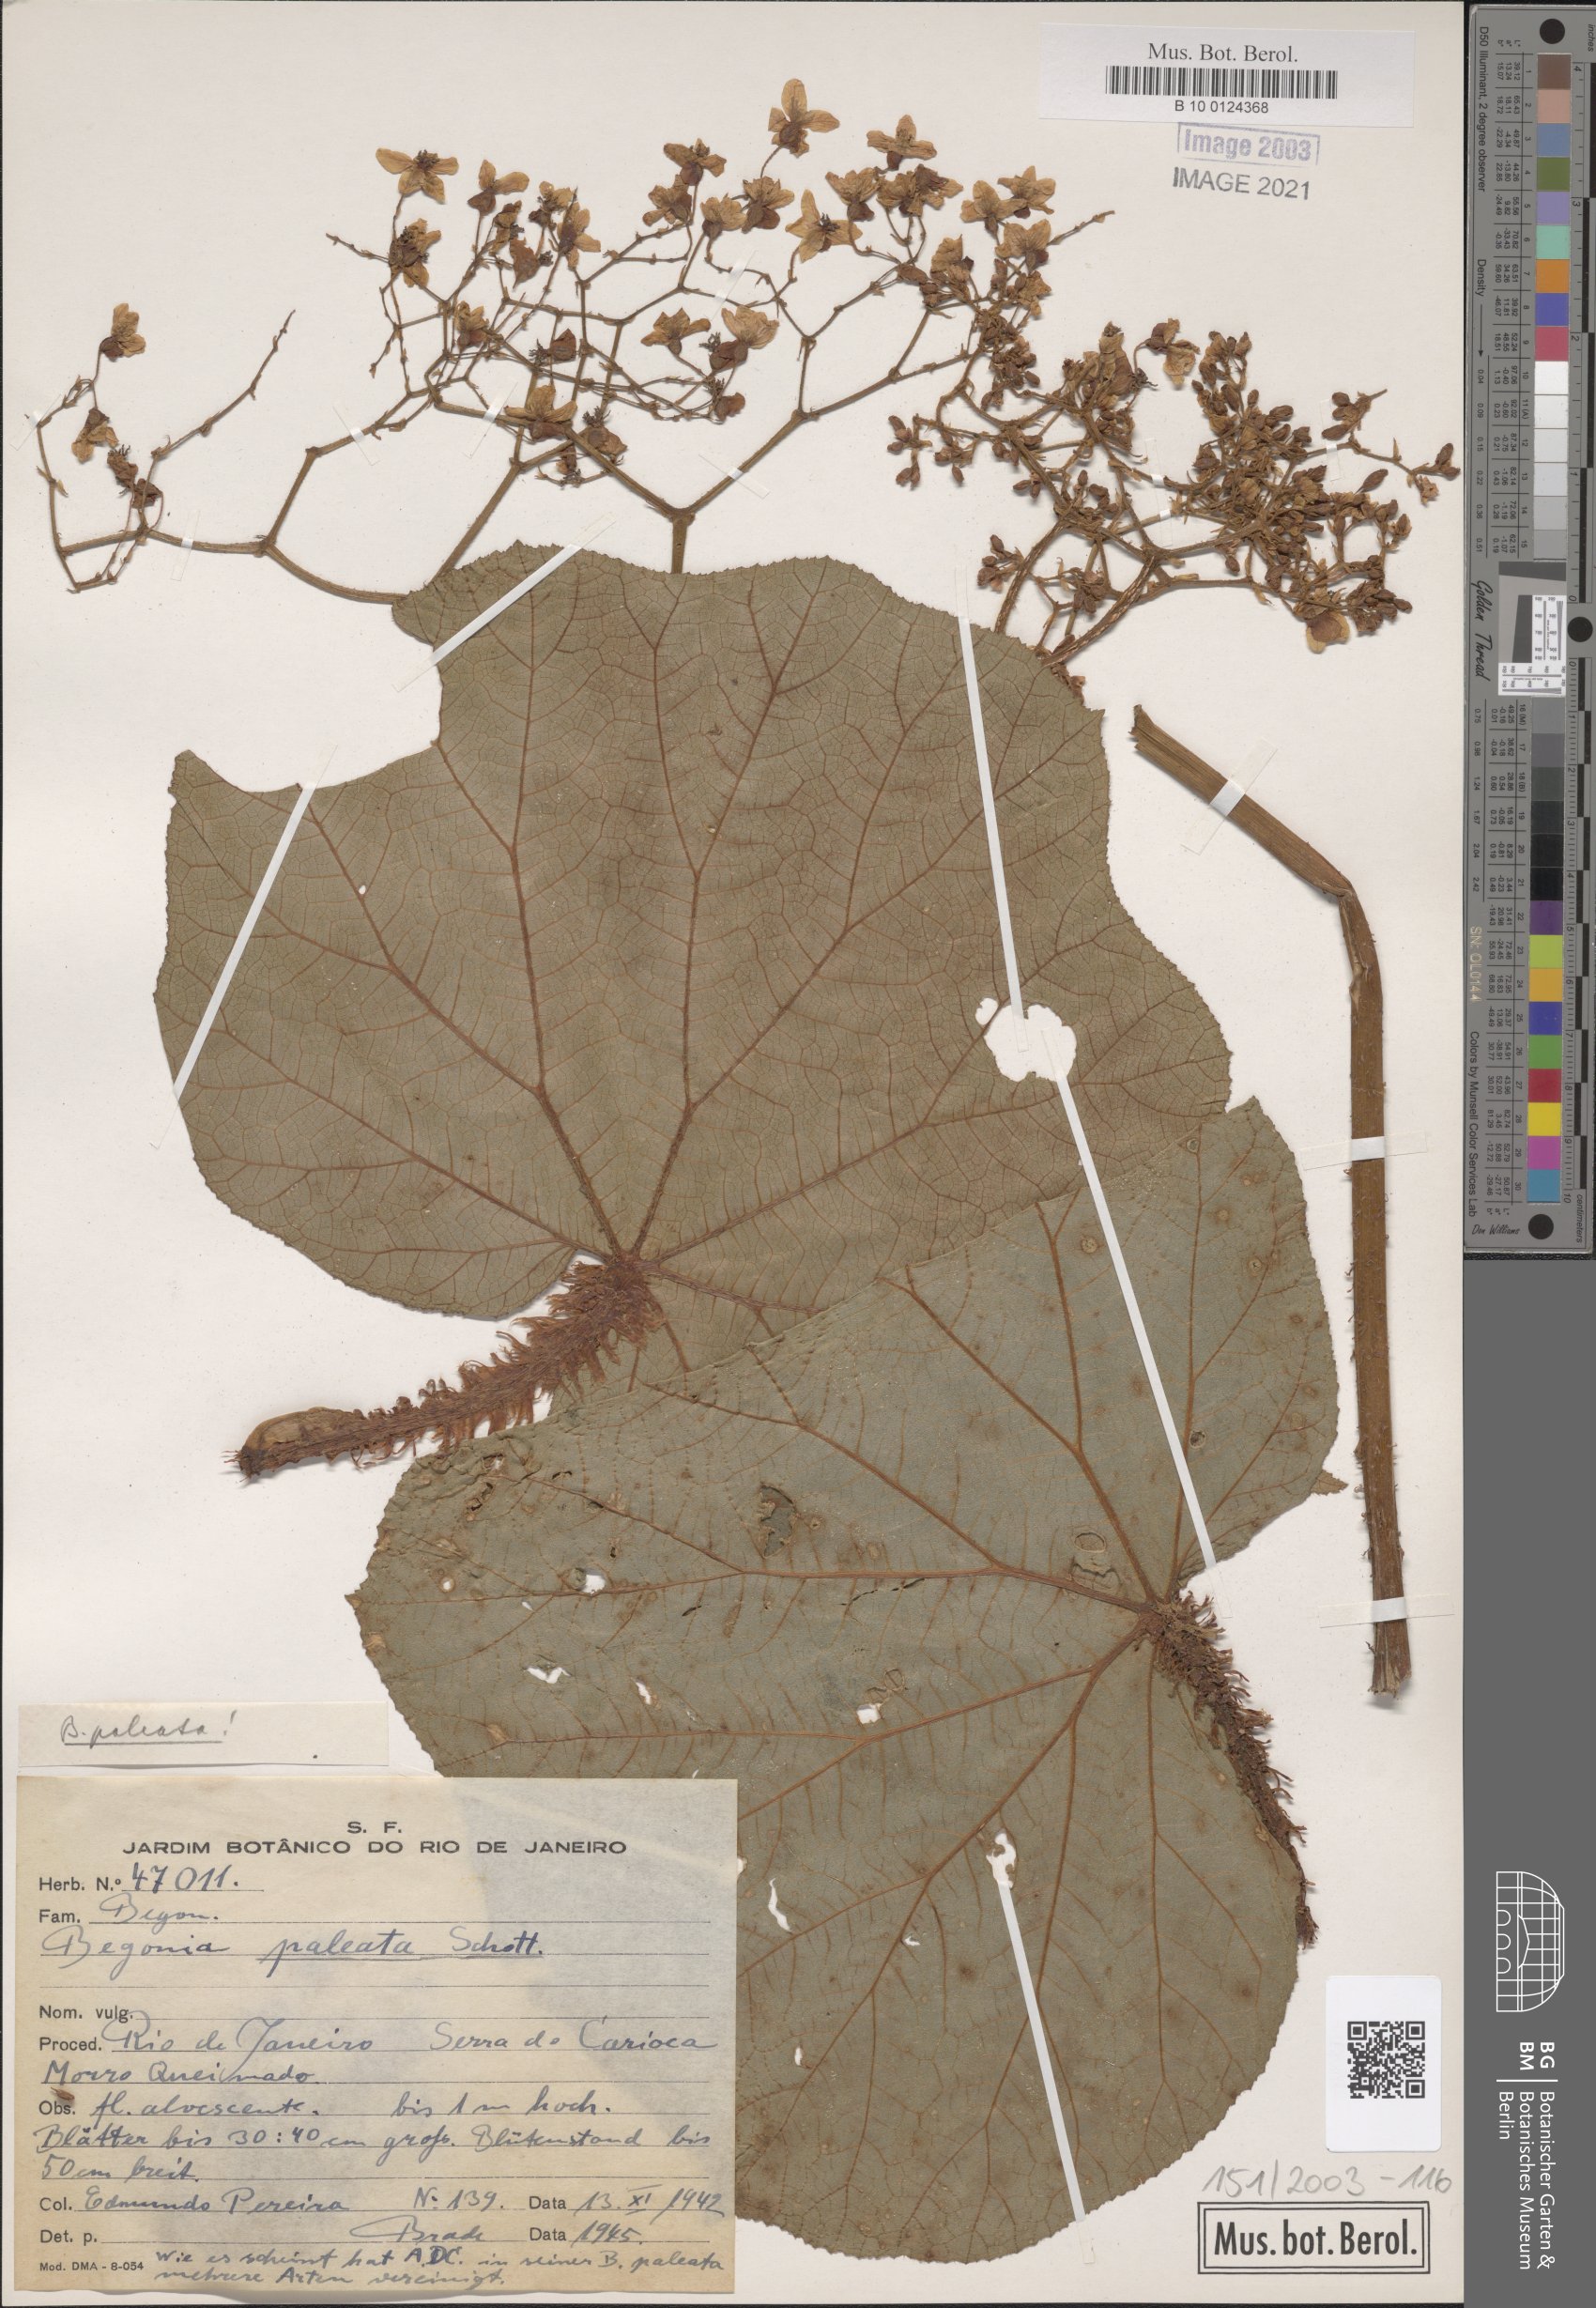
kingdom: Plantae
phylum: Tracheophyta
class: Magnoliopsida
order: Cucurbitales
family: Begoniaceae
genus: Begonia
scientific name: Begonia paleata
